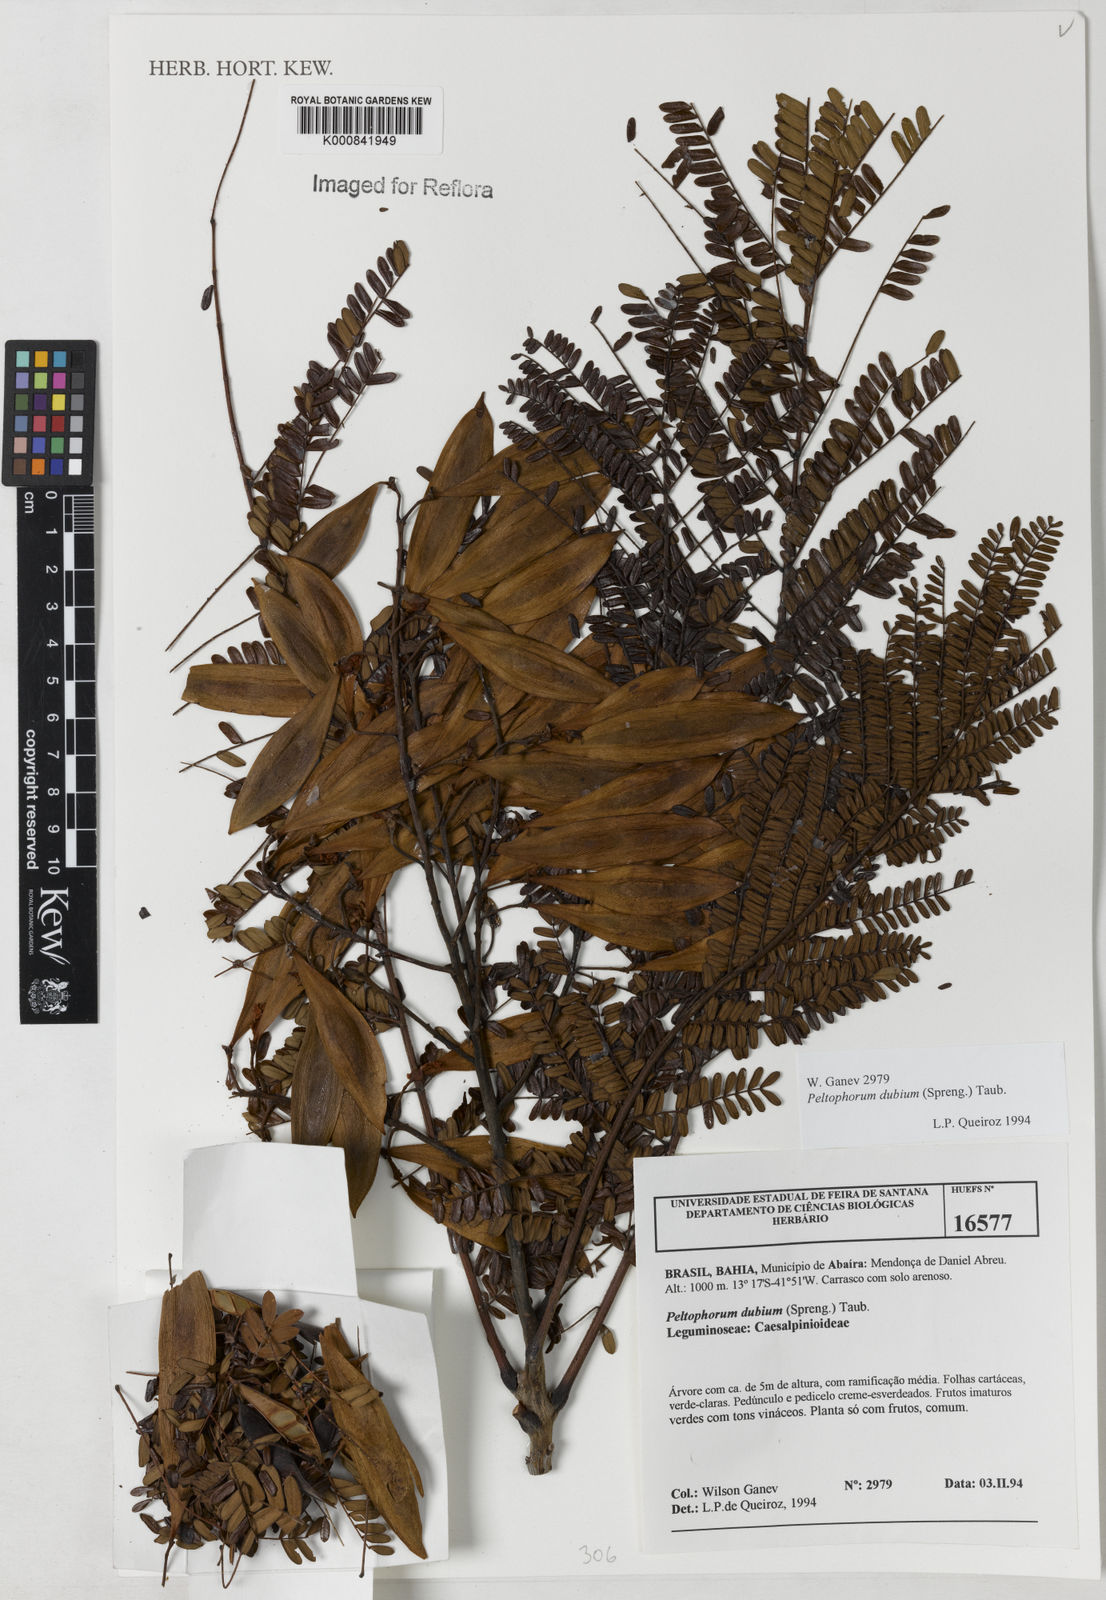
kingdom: Plantae
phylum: Tracheophyta
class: Magnoliopsida
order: Fabales
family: Fabaceae
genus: Peltophorum
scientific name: Peltophorum dubium
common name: Horsebush
